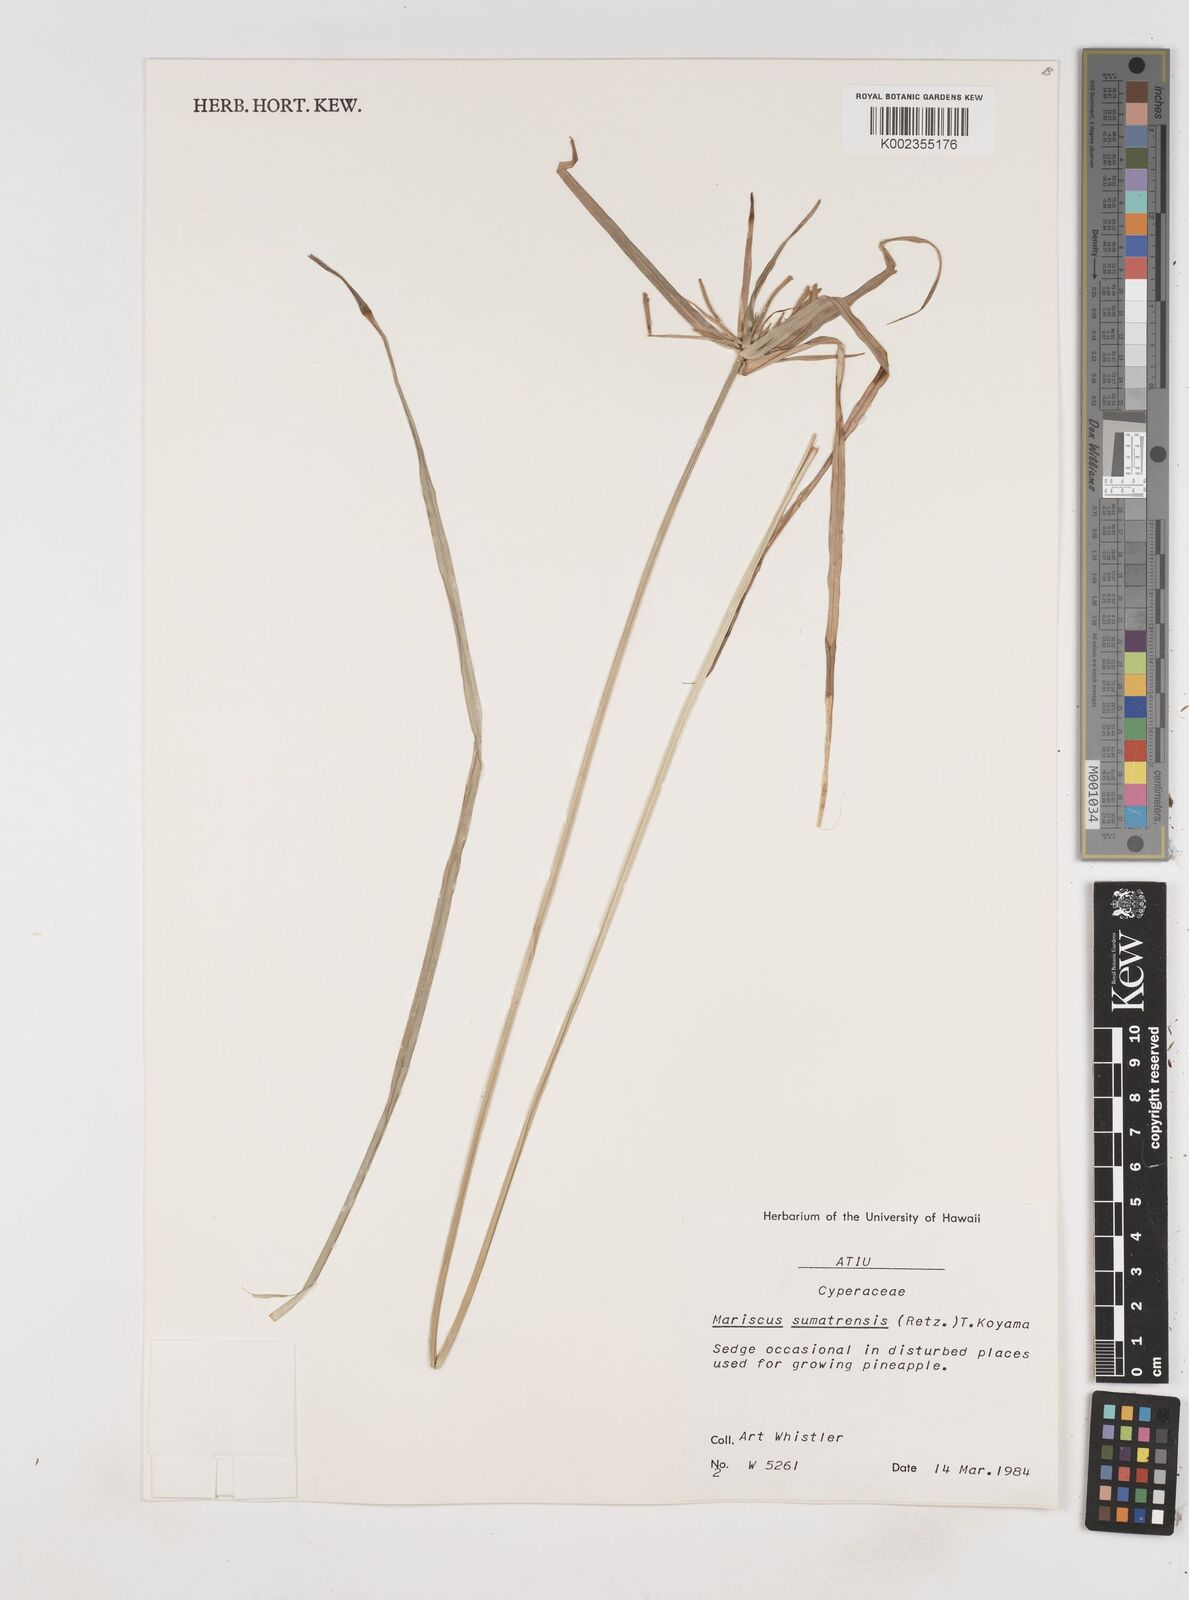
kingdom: Plantae
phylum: Tracheophyta
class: Liliopsida
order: Poales
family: Cyperaceae
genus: Cyperus
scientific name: Cyperus
